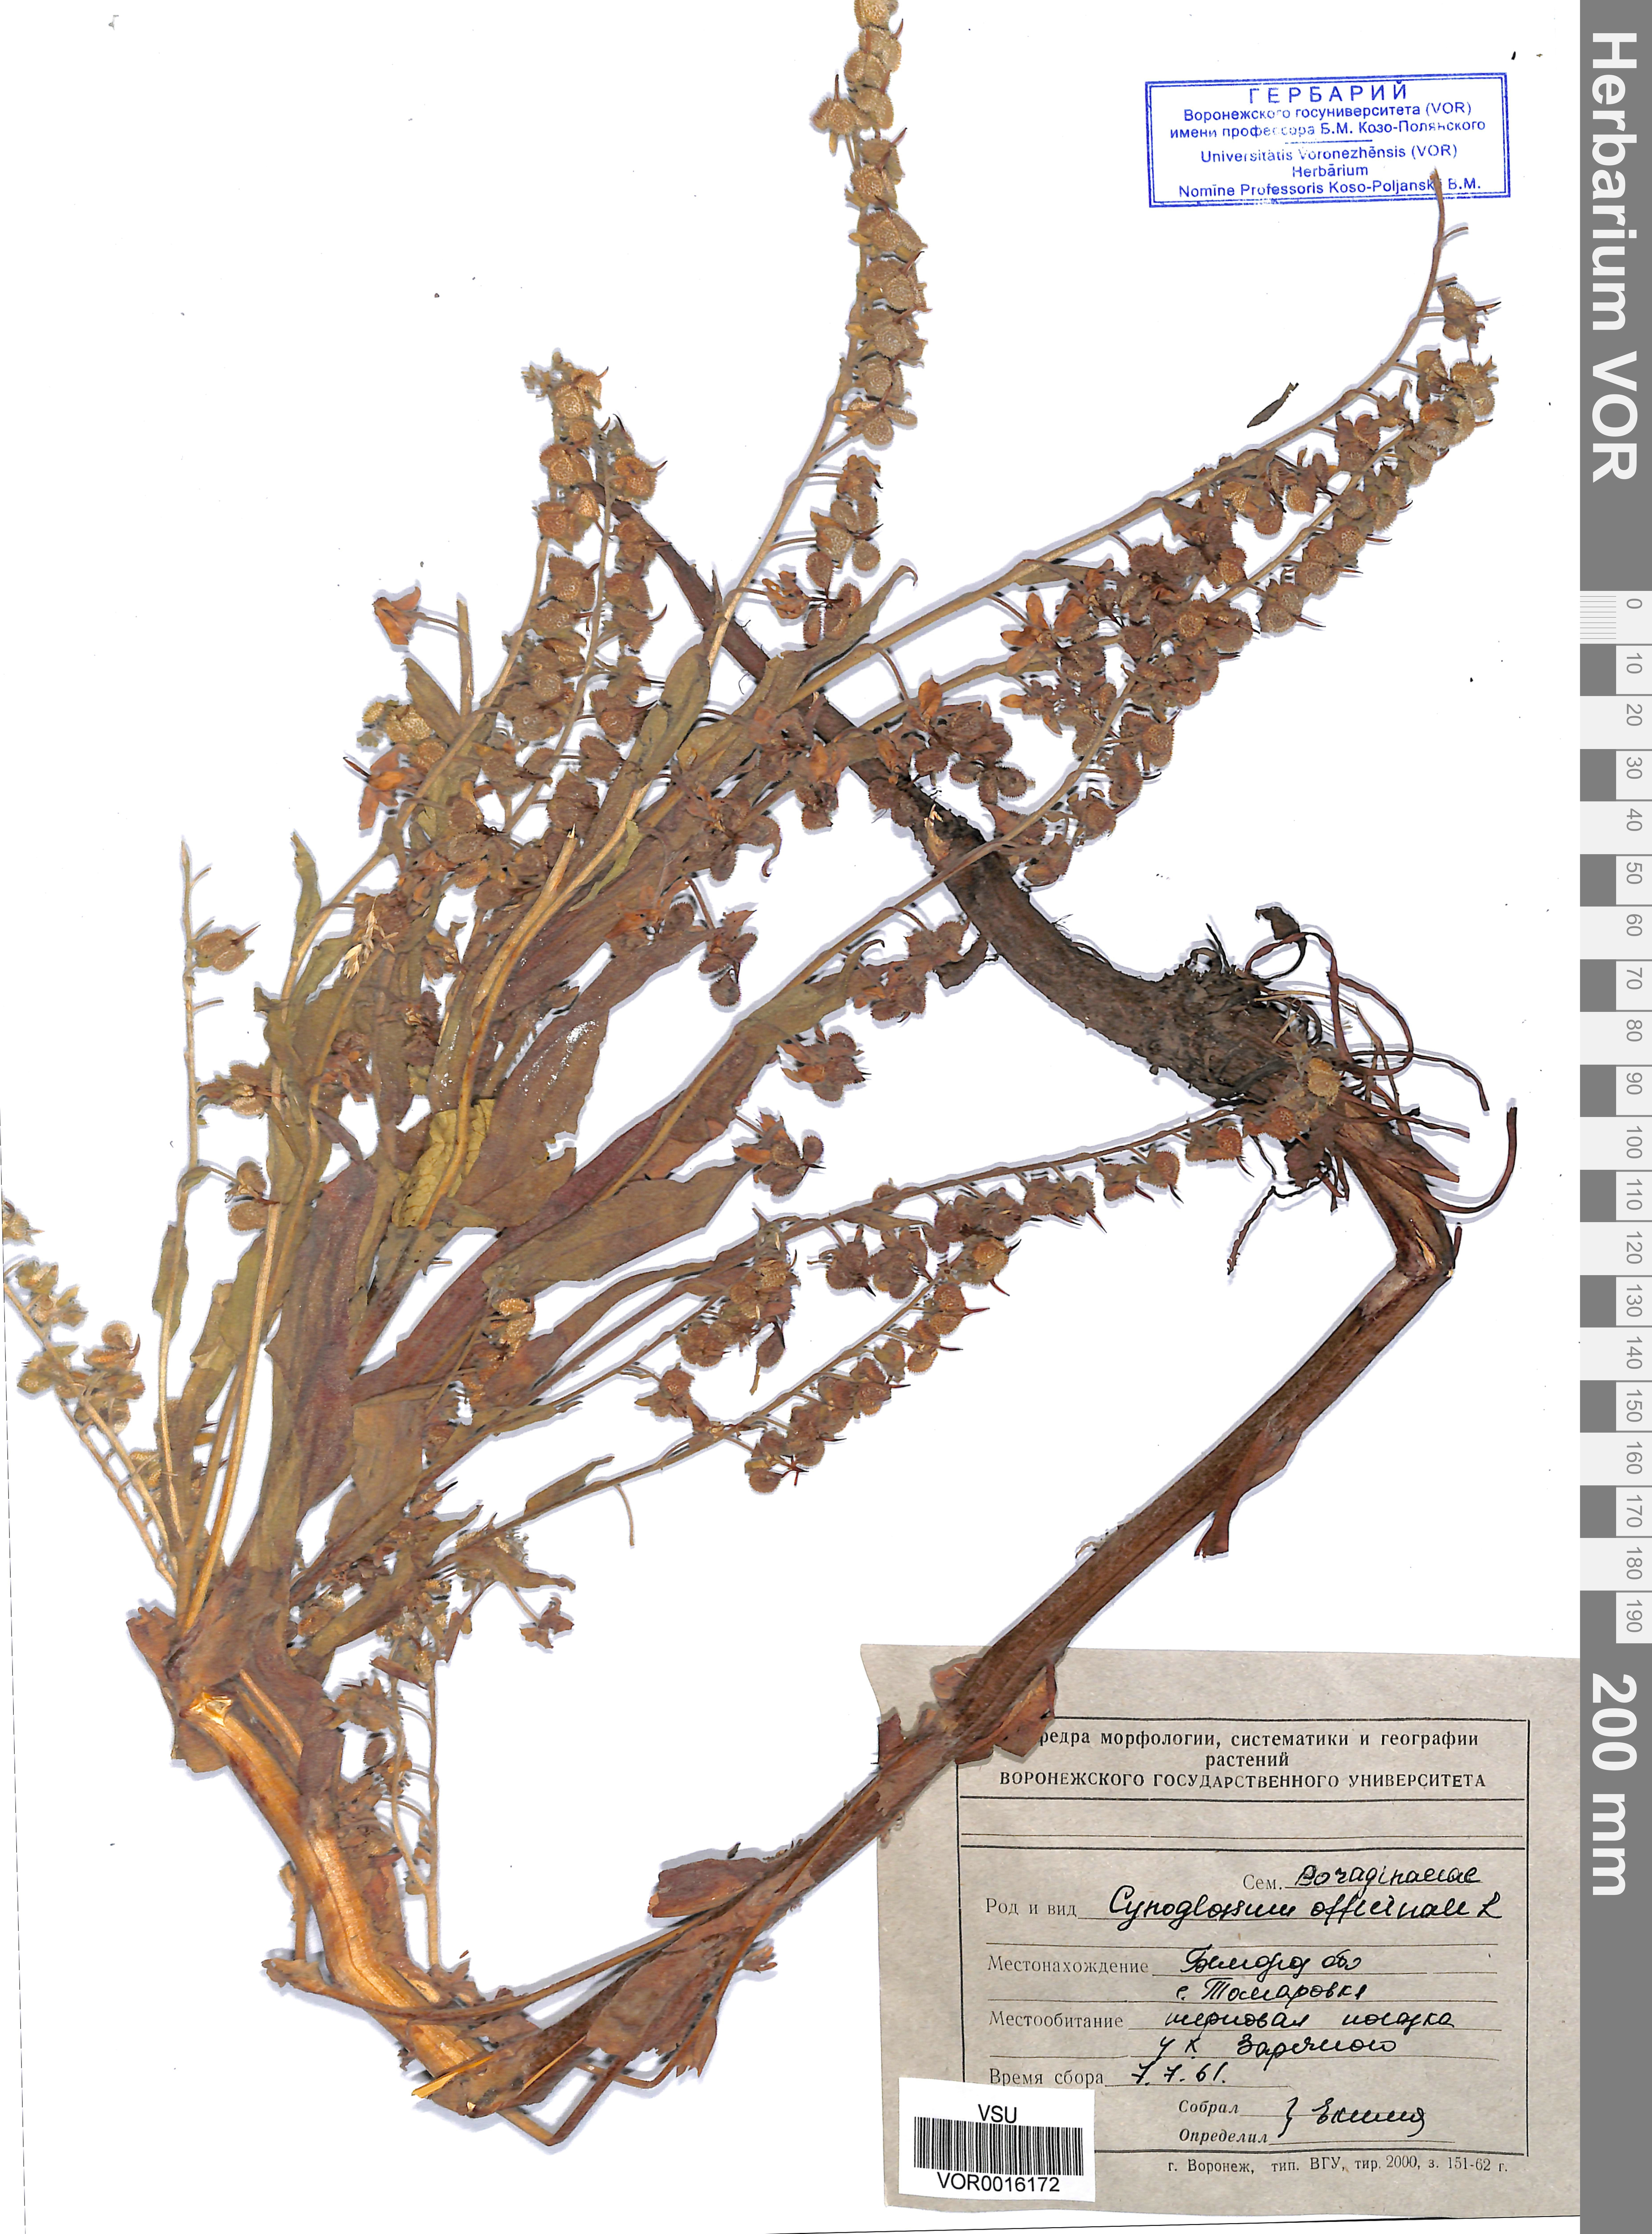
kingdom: Plantae
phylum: Tracheophyta
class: Magnoliopsida
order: Boraginales
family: Boraginaceae
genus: Cynoglossum
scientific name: Cynoglossum officinale
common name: Hound's-tongue
